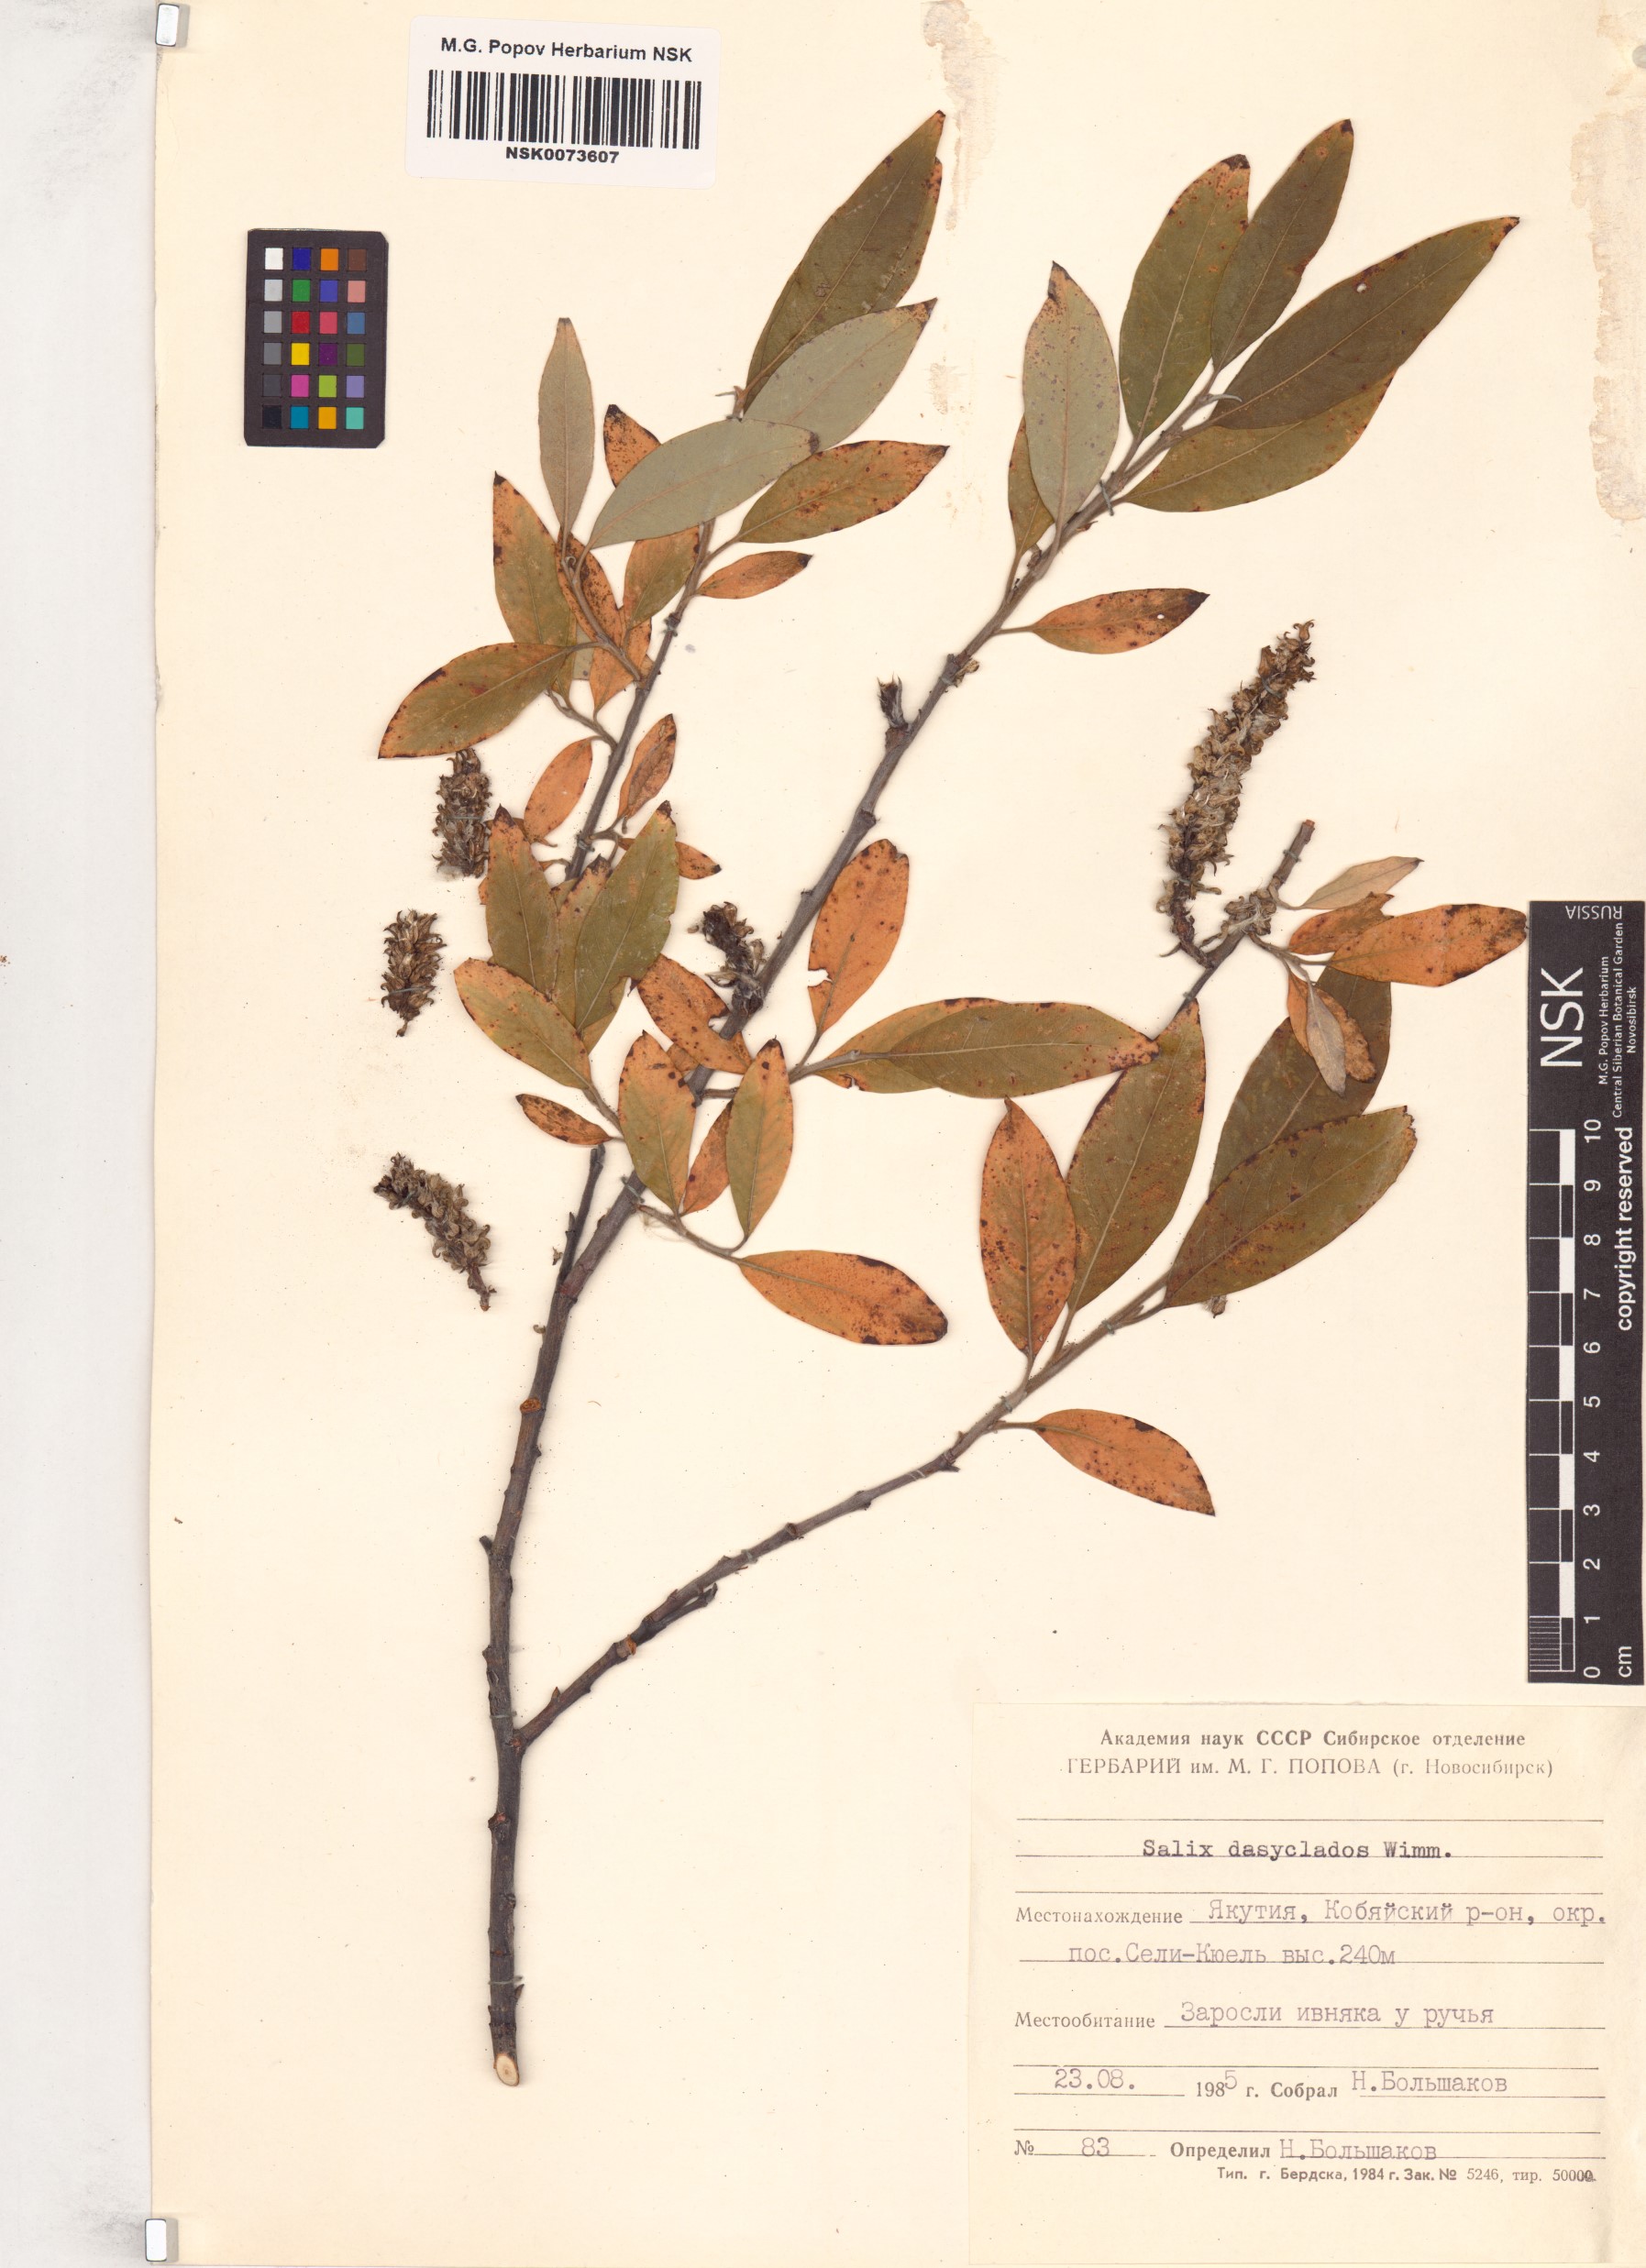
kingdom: Plantae
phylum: Tracheophyta
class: Magnoliopsida
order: Malpighiales
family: Salicaceae
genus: Salix
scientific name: Salix gmelinii
